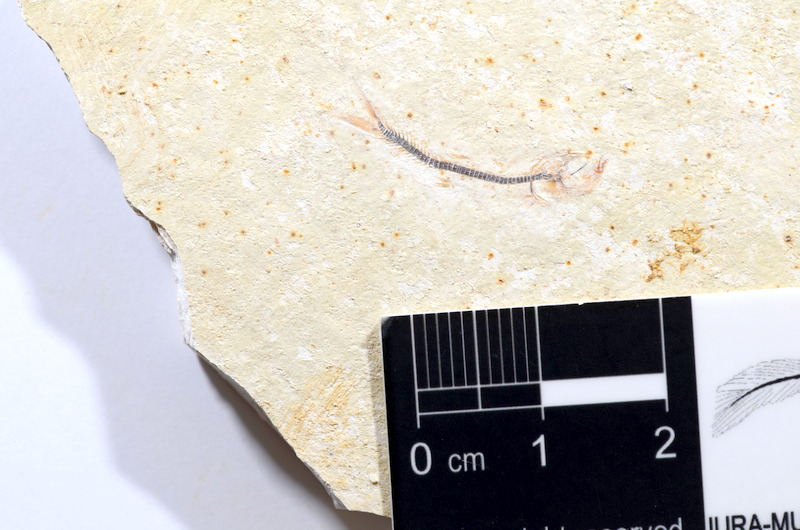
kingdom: Animalia
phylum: Chordata
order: Salmoniformes
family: Orthogonikleithridae
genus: Orthogonikleithrus
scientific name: Orthogonikleithrus hoelli
